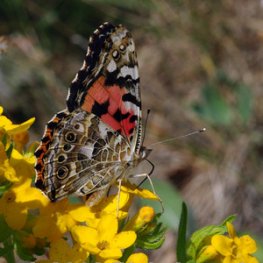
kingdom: Animalia
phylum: Arthropoda
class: Insecta
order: Lepidoptera
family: Nymphalidae
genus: Vanessa
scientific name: Vanessa cardui
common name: Painted Lady
